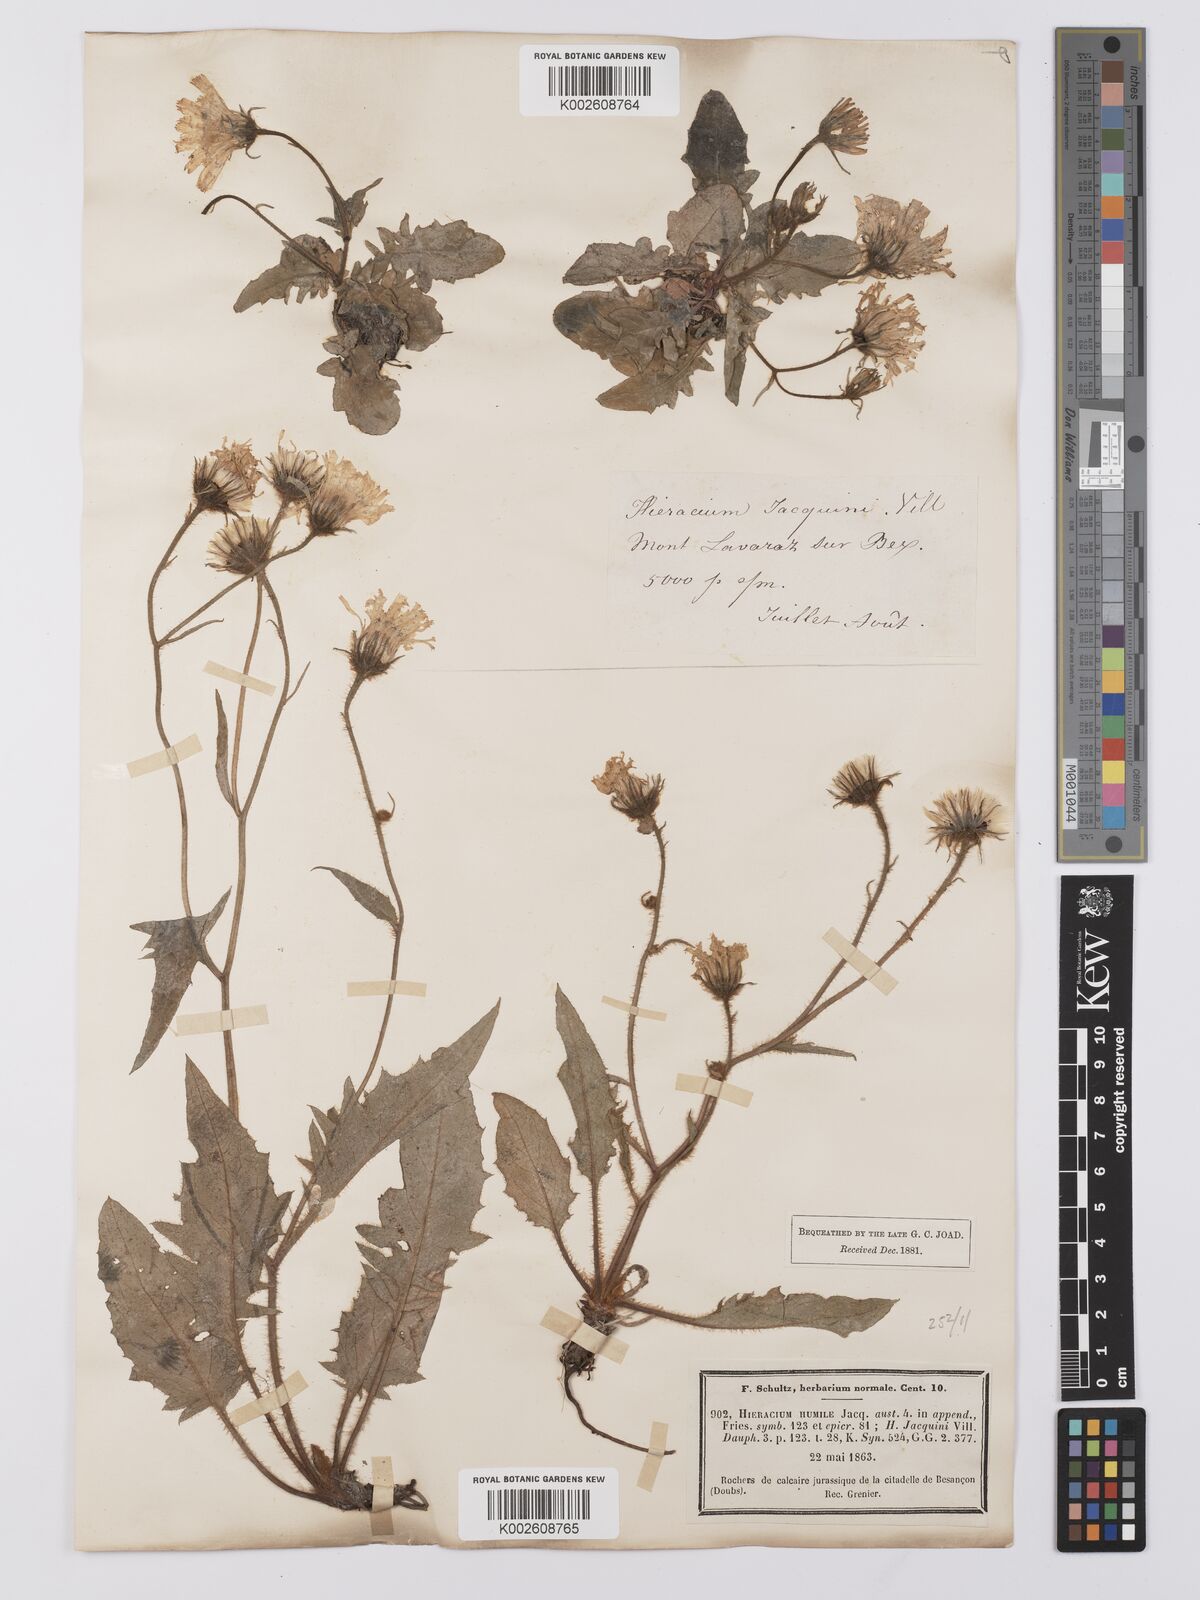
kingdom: Plantae
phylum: Tracheophyta
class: Magnoliopsida
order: Asterales
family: Asteraceae
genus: Hieracium
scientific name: Hieracium humile
